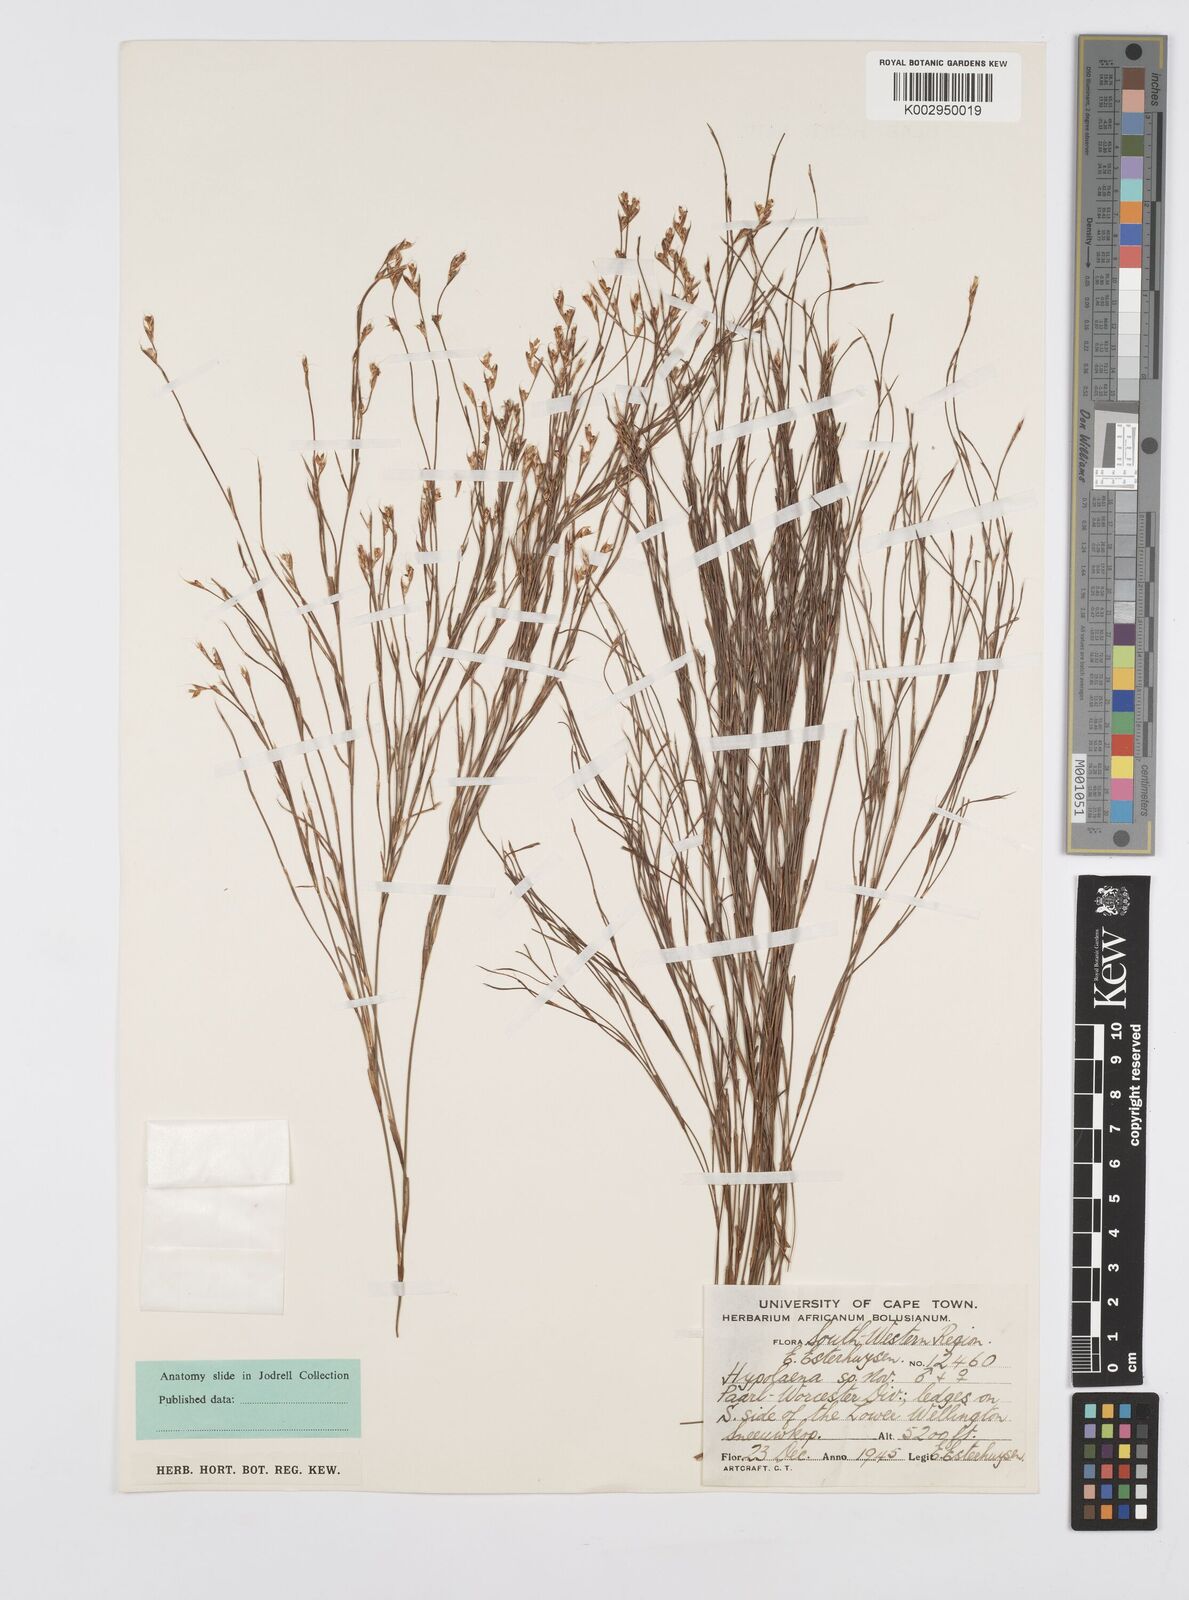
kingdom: Plantae
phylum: Tracheophyta
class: Liliopsida
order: Poales
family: Restionaceae
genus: Anthochortus
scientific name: Anthochortus
